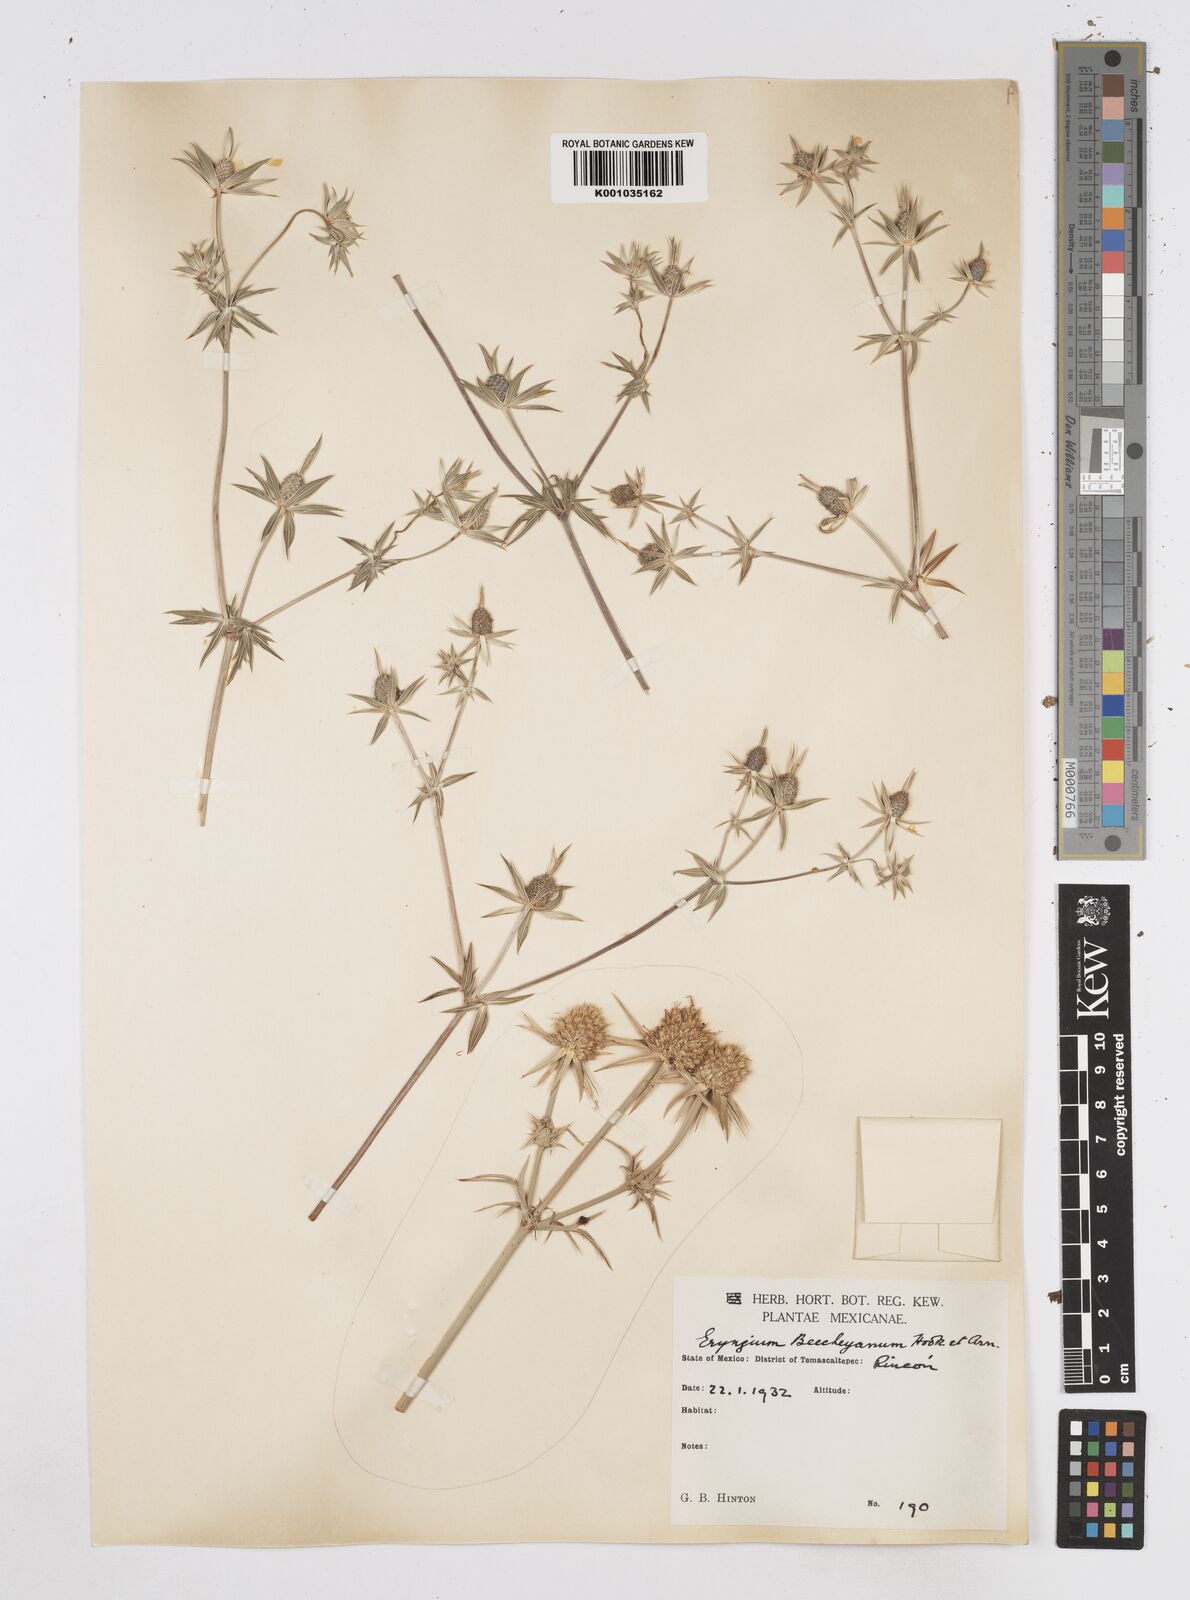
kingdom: Plantae
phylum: Tracheophyta
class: Magnoliopsida
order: Apiales
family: Apiaceae
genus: Eryngium
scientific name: Eryngium beecheyanum
